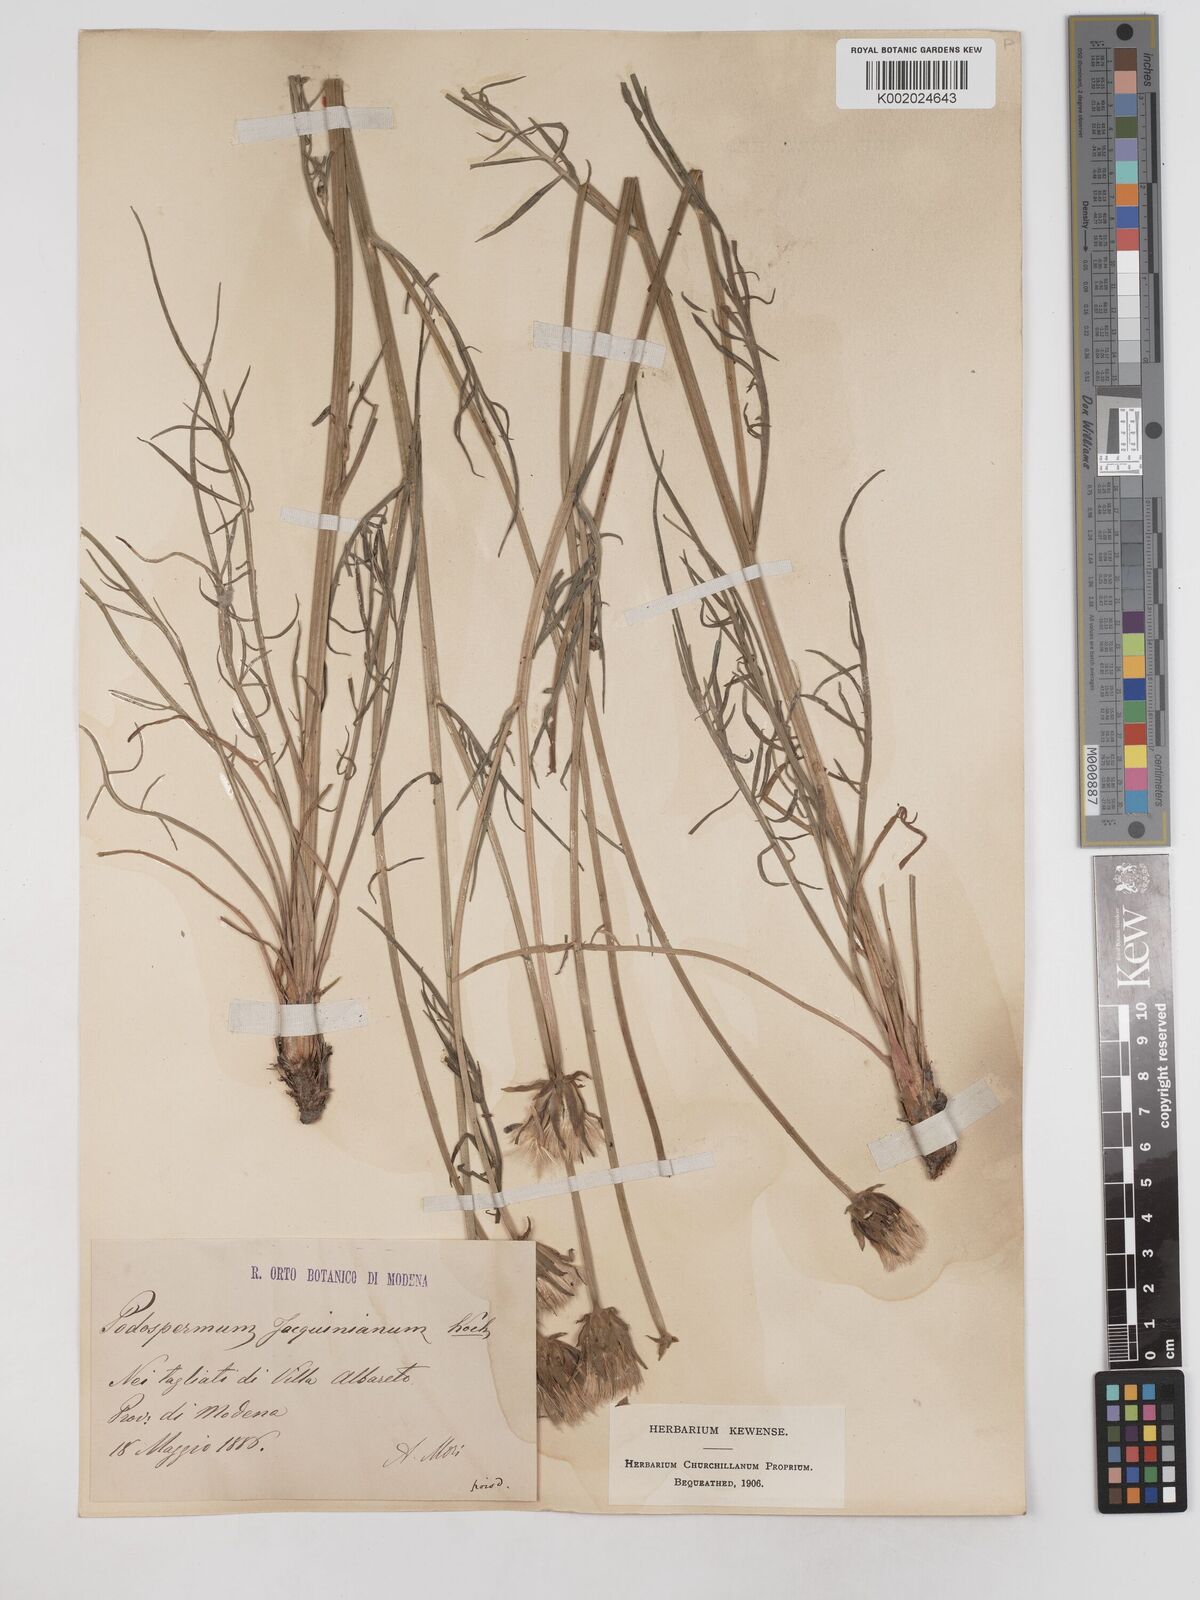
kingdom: Plantae
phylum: Tracheophyta
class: Magnoliopsida
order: Asterales
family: Asteraceae
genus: Scorzonera
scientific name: Scorzonera cana
